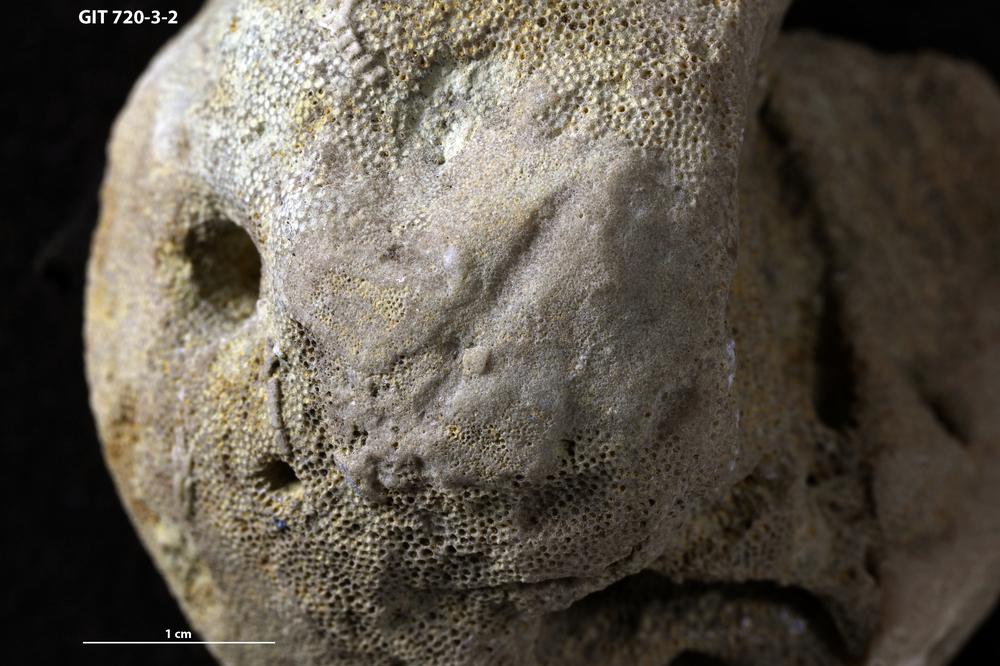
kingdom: Animalia
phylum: Bryozoa
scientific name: Bryozoa
